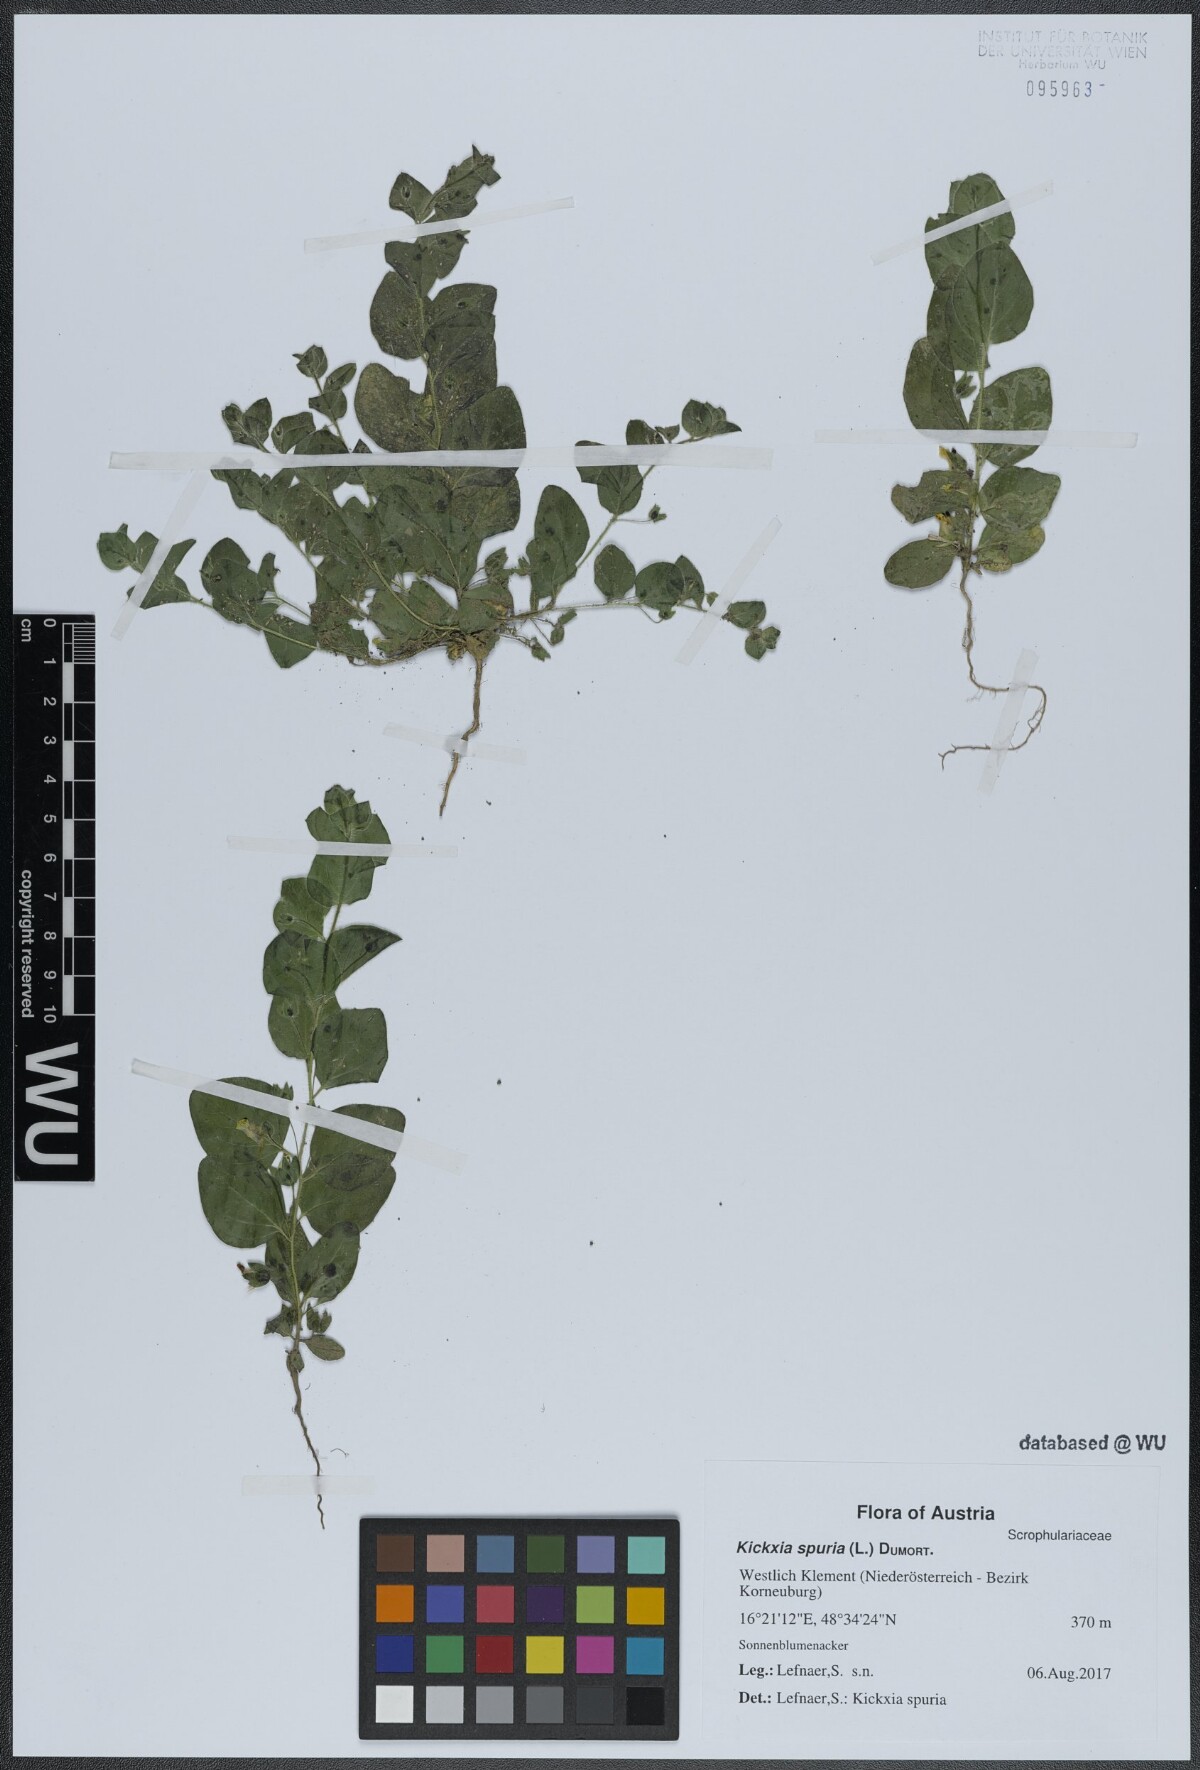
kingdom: Plantae
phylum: Tracheophyta
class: Magnoliopsida
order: Lamiales
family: Plantaginaceae
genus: Kickxia
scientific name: Kickxia spuria
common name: Round-leaved fluellen
